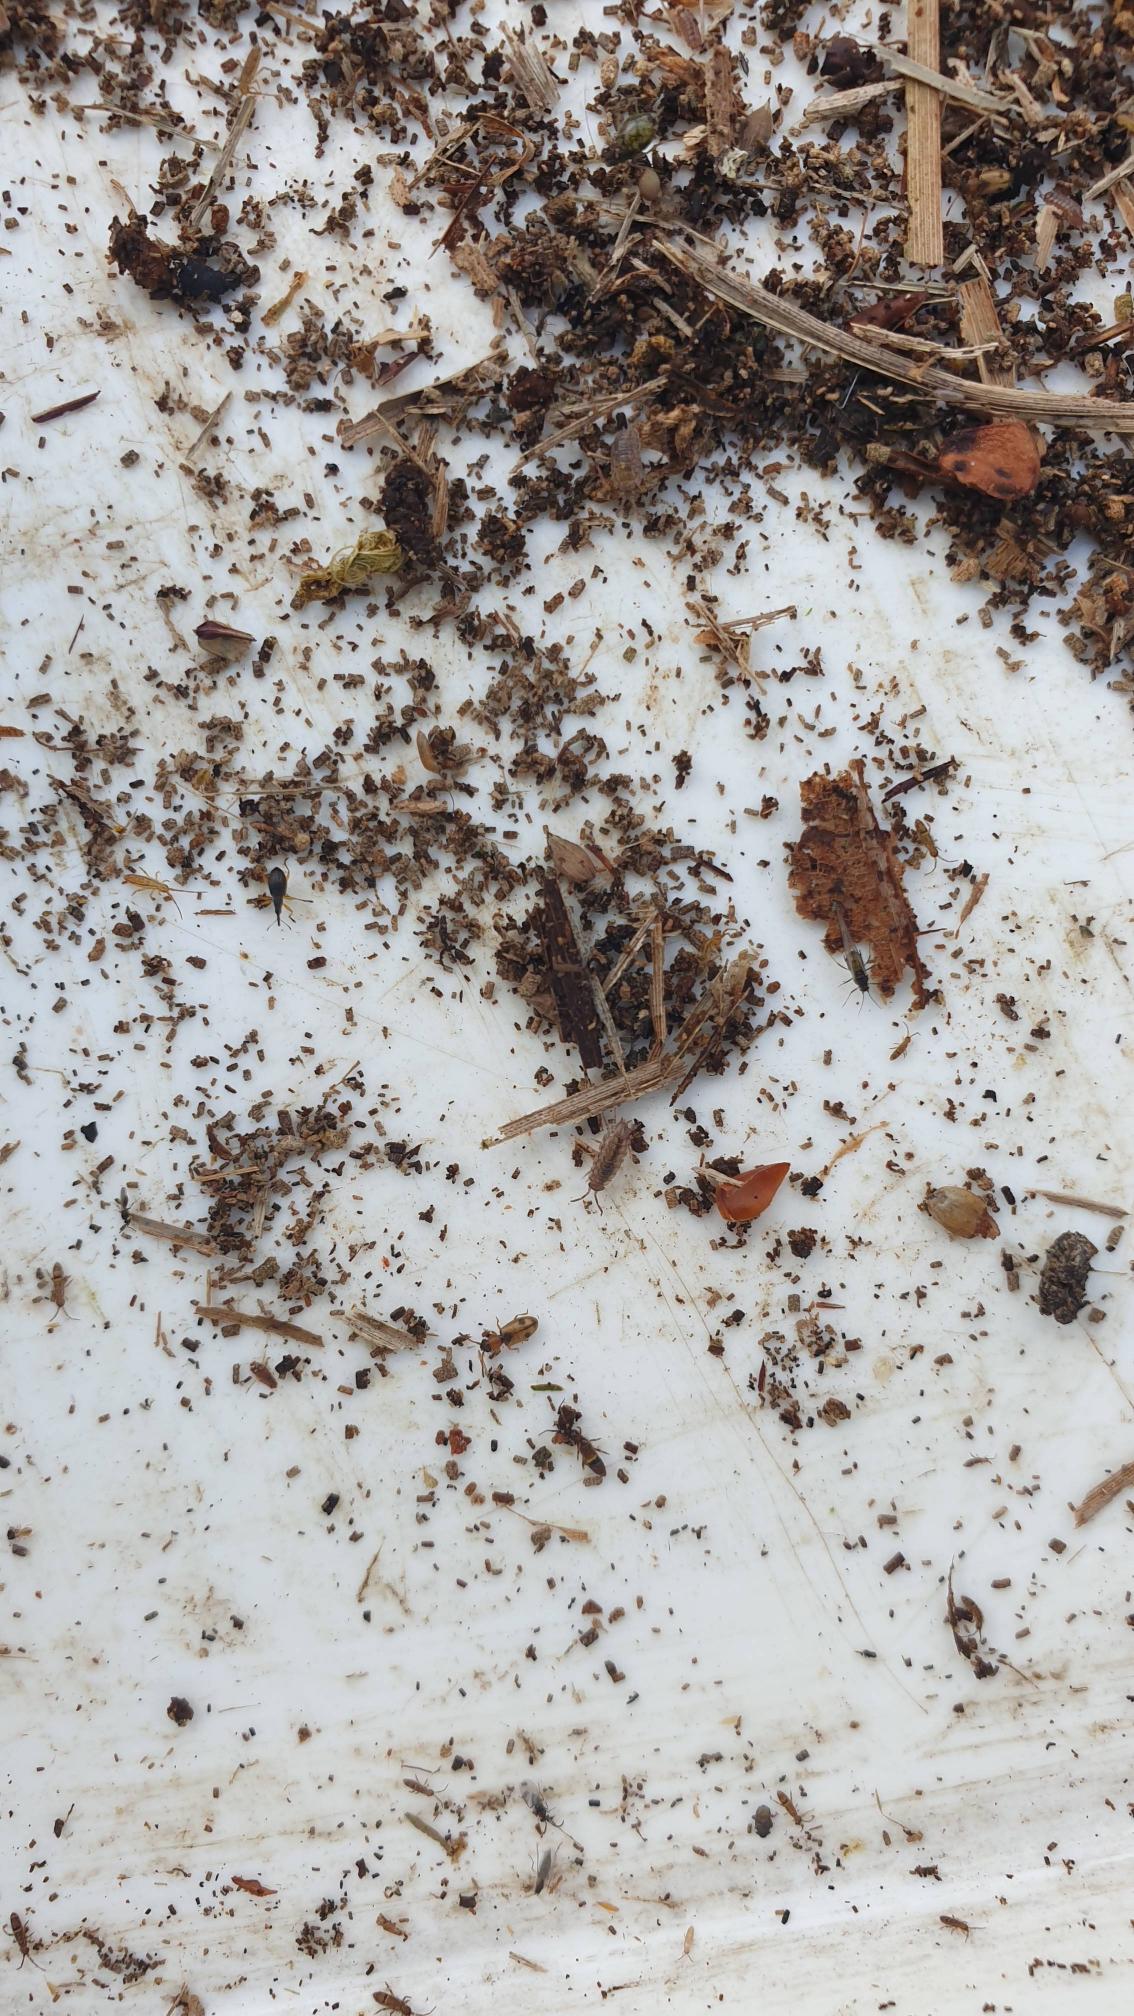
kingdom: Animalia
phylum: Arthropoda
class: Insecta
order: Coleoptera
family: Silvanidae
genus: Psammoecus
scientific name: Psammoecus bipunctatus
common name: Tagrørsfladbille
